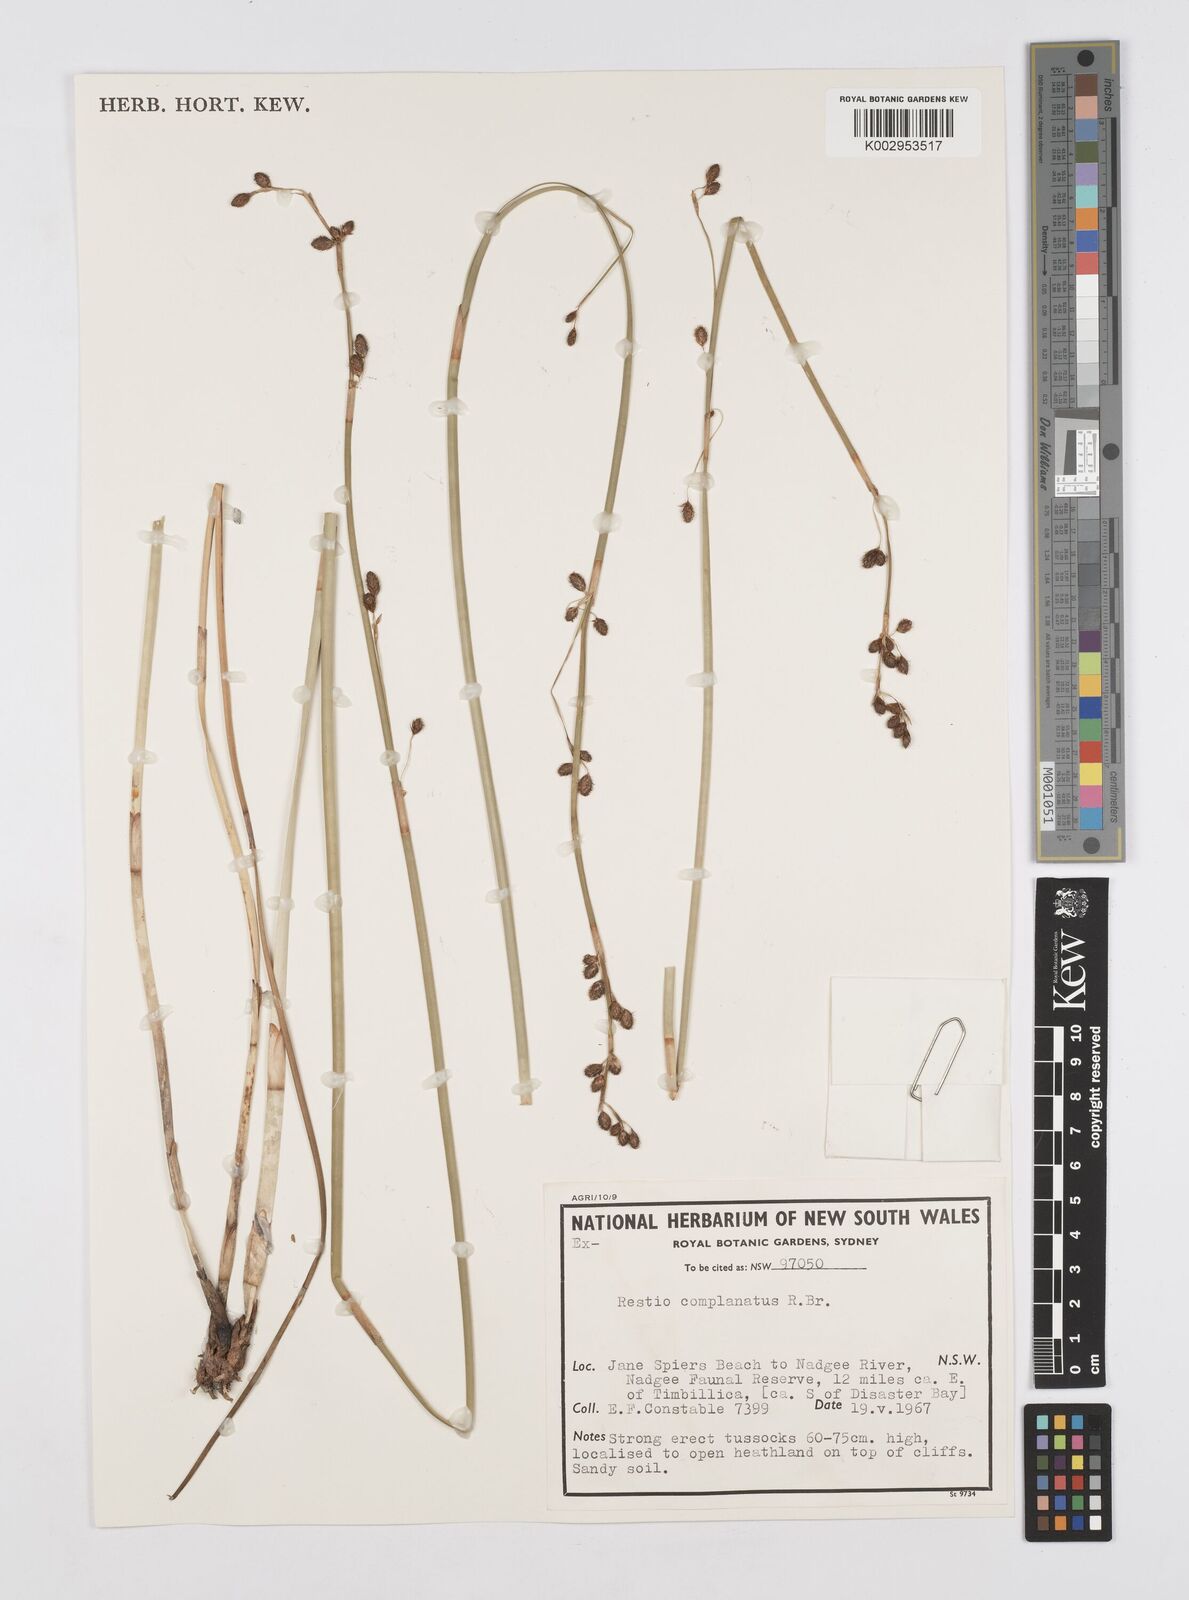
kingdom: Plantae
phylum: Tracheophyta
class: Liliopsida
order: Poales
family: Restionaceae
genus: Eurychorda
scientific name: Eurychorda complanata
